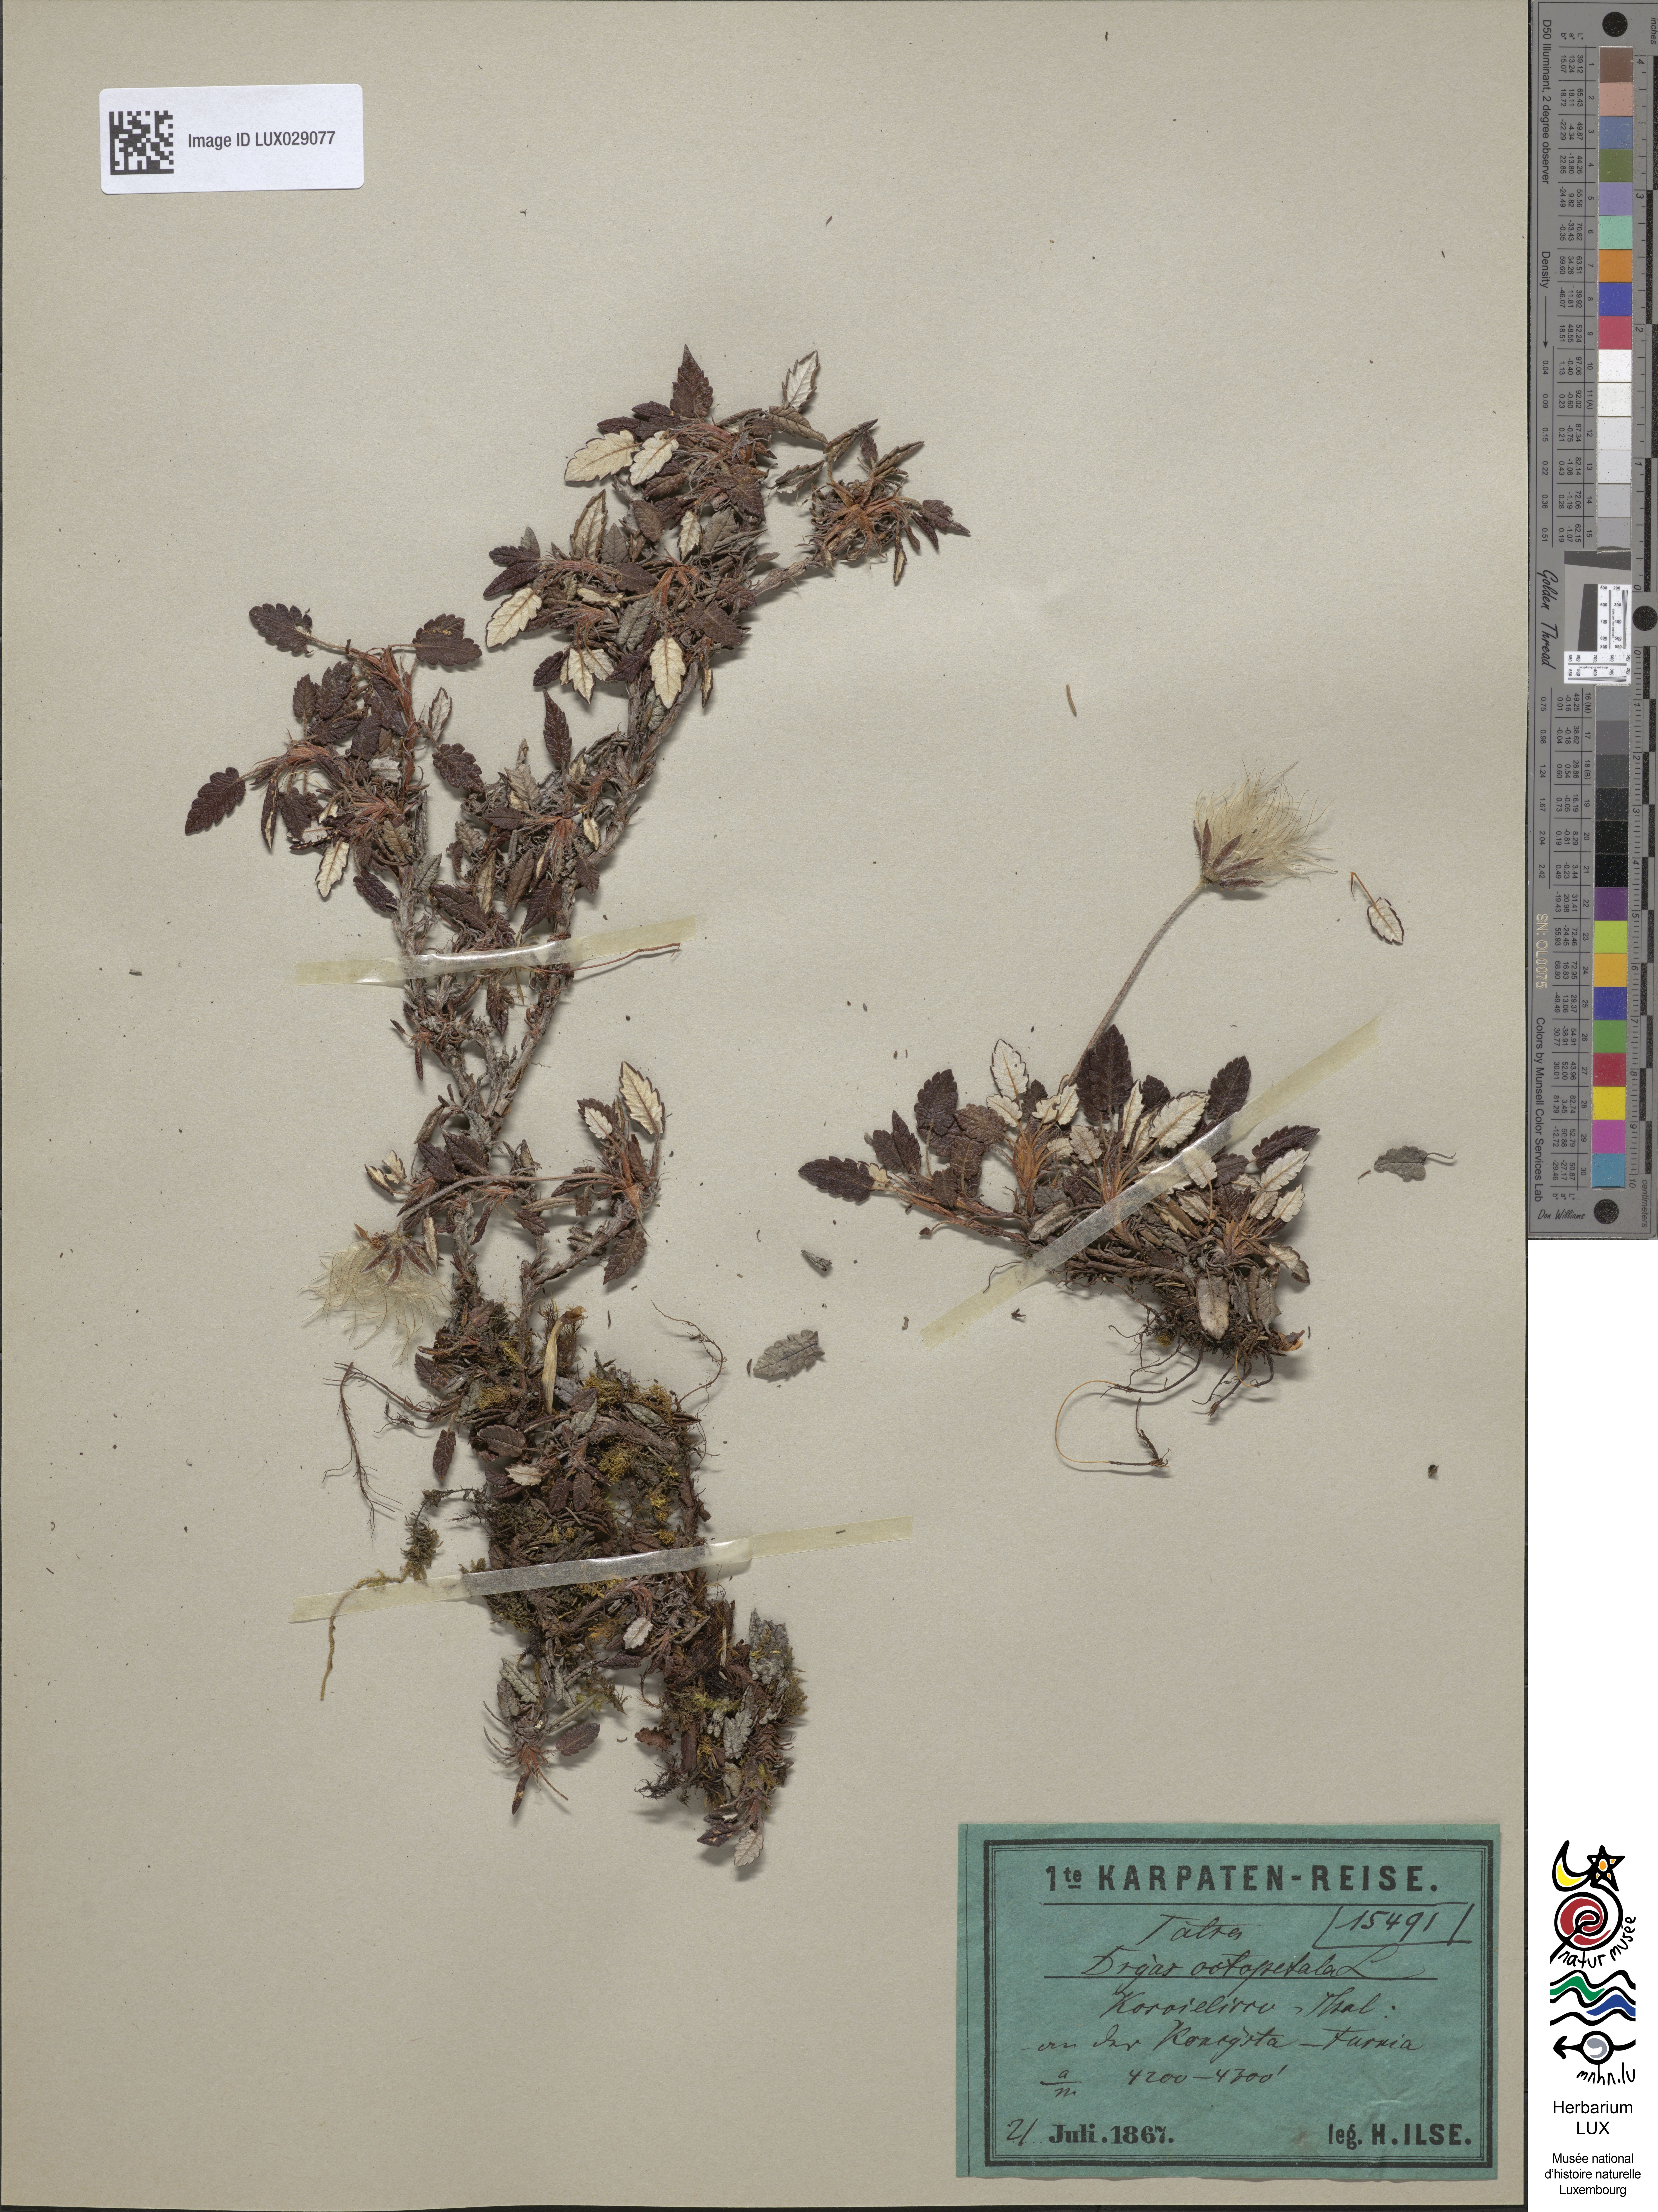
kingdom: Plantae
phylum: Tracheophyta
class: Magnoliopsida
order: Rosales
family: Rosaceae
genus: Dryas
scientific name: Dryas octopetala
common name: Eight-petal mountain-avens
